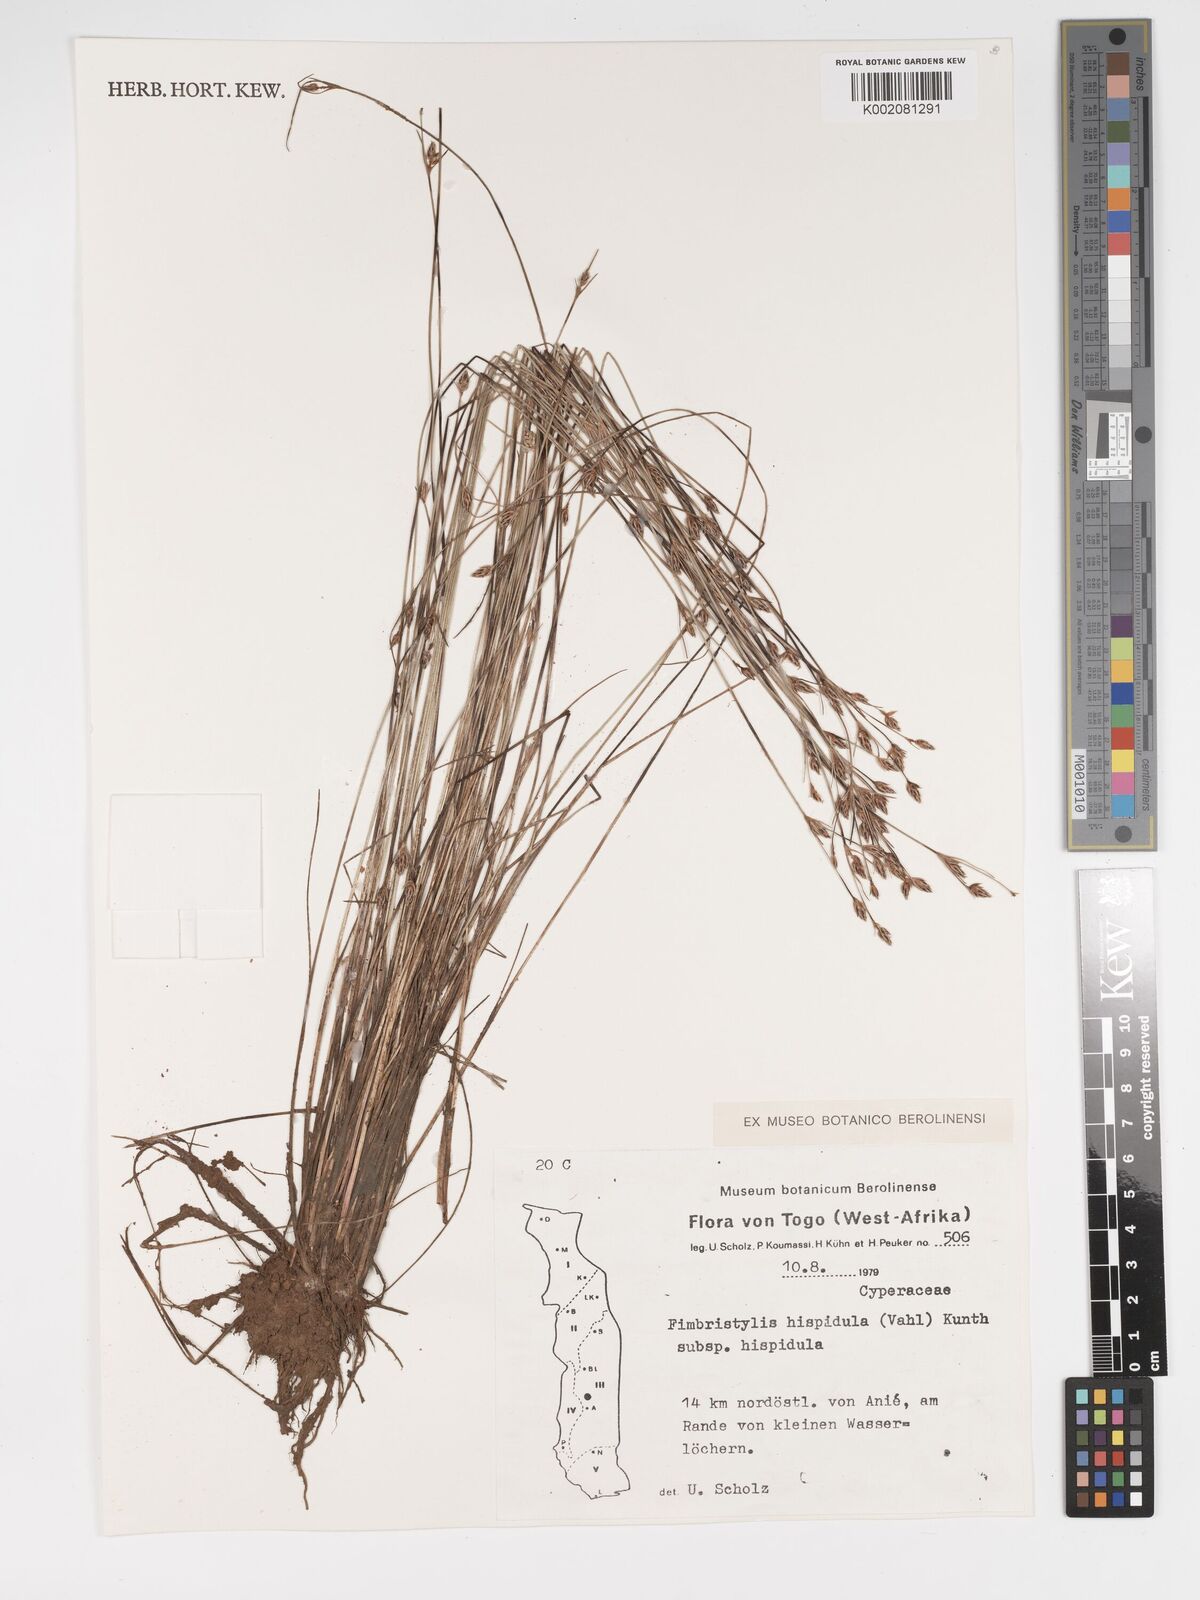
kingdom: Plantae
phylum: Tracheophyta
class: Liliopsida
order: Poales
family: Cyperaceae
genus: Bulbostylis
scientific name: Bulbostylis hispidula
